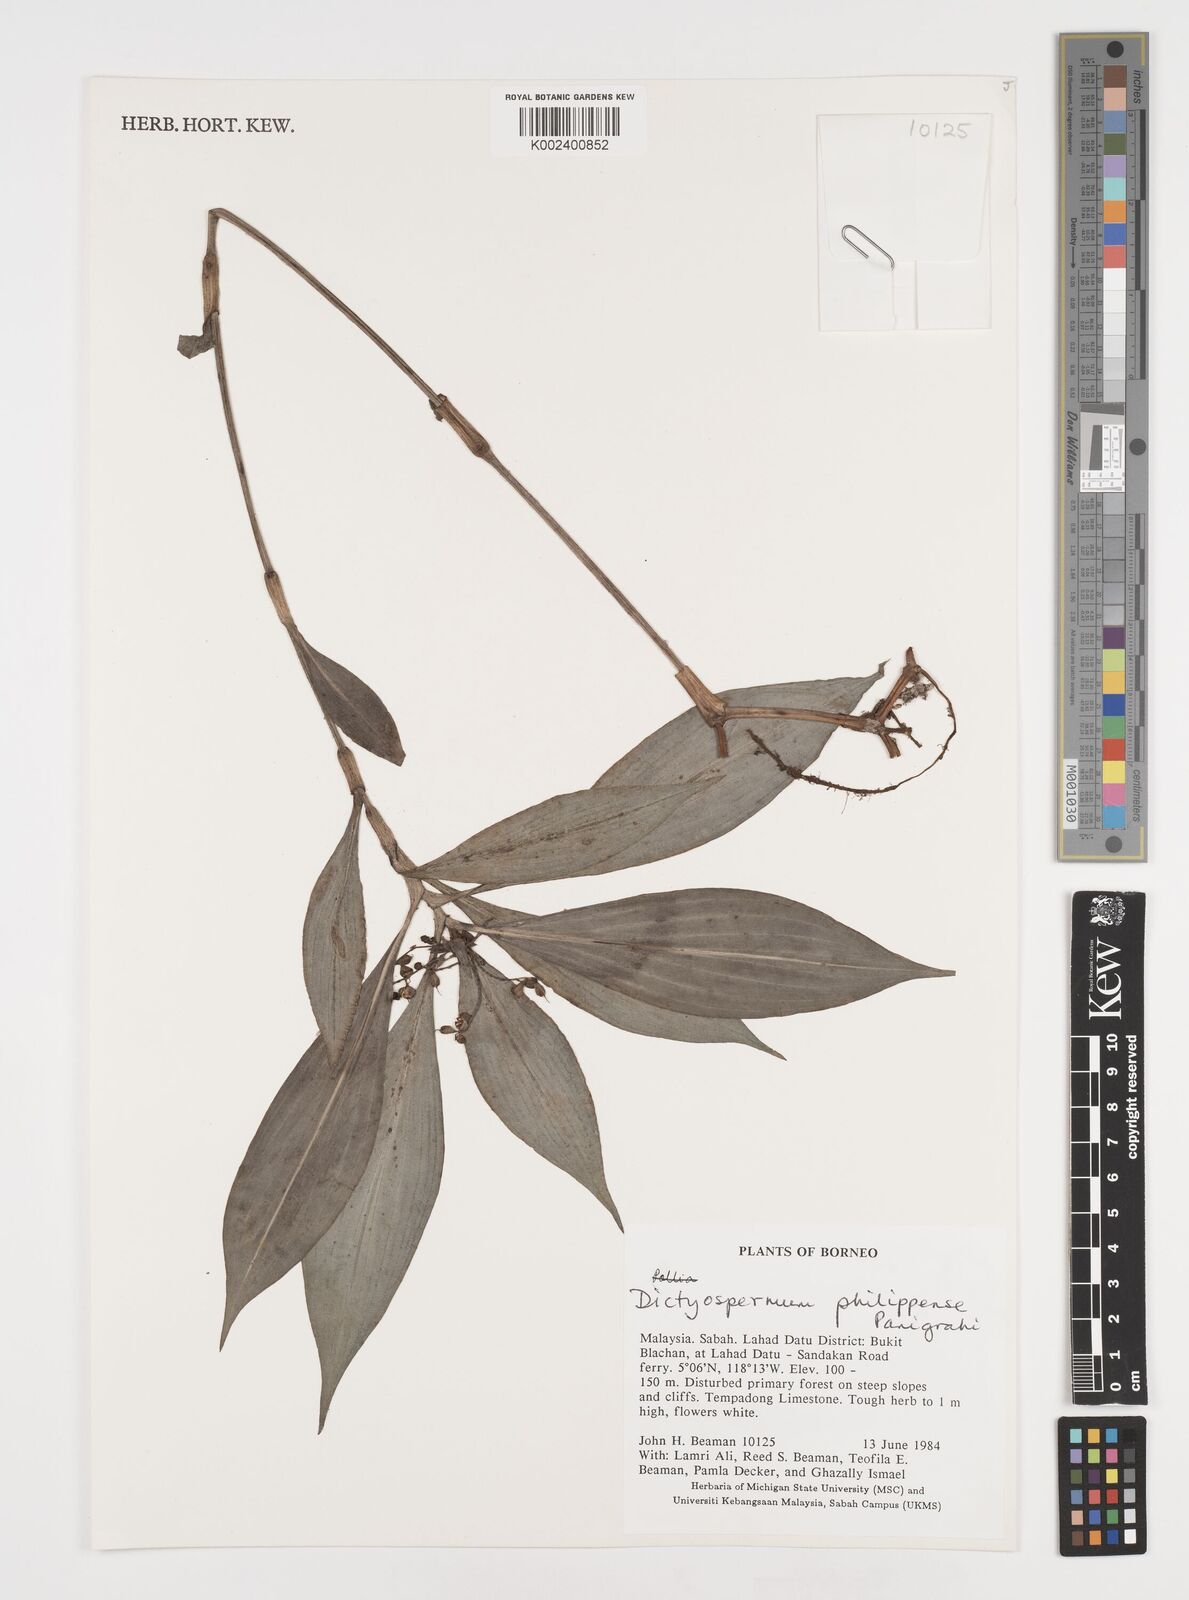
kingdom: Plantae
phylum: Tracheophyta
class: Liliopsida
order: Commelinales
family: Commelinaceae
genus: Tricarpelema
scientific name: Tricarpelema philippense
